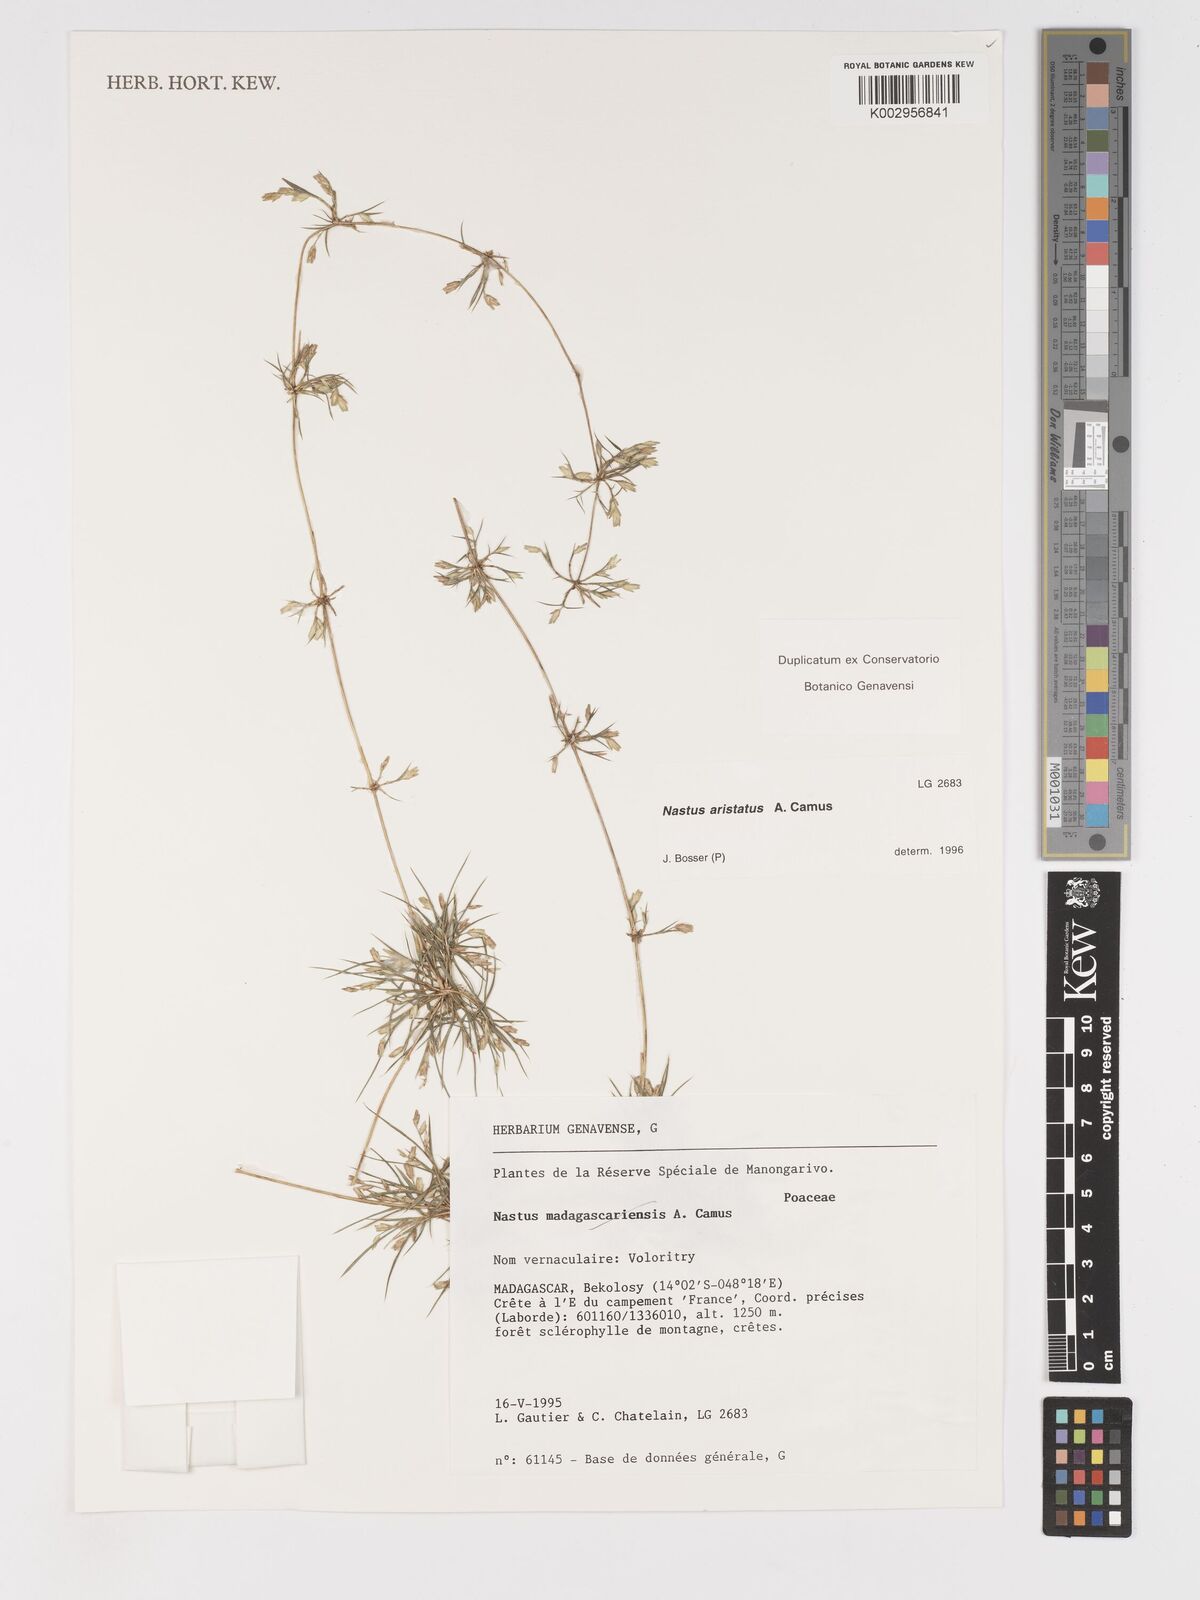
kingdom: Plantae
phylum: Tracheophyta
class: Liliopsida
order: Poales
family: Poaceae
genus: Nastus
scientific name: Nastus aristatus
